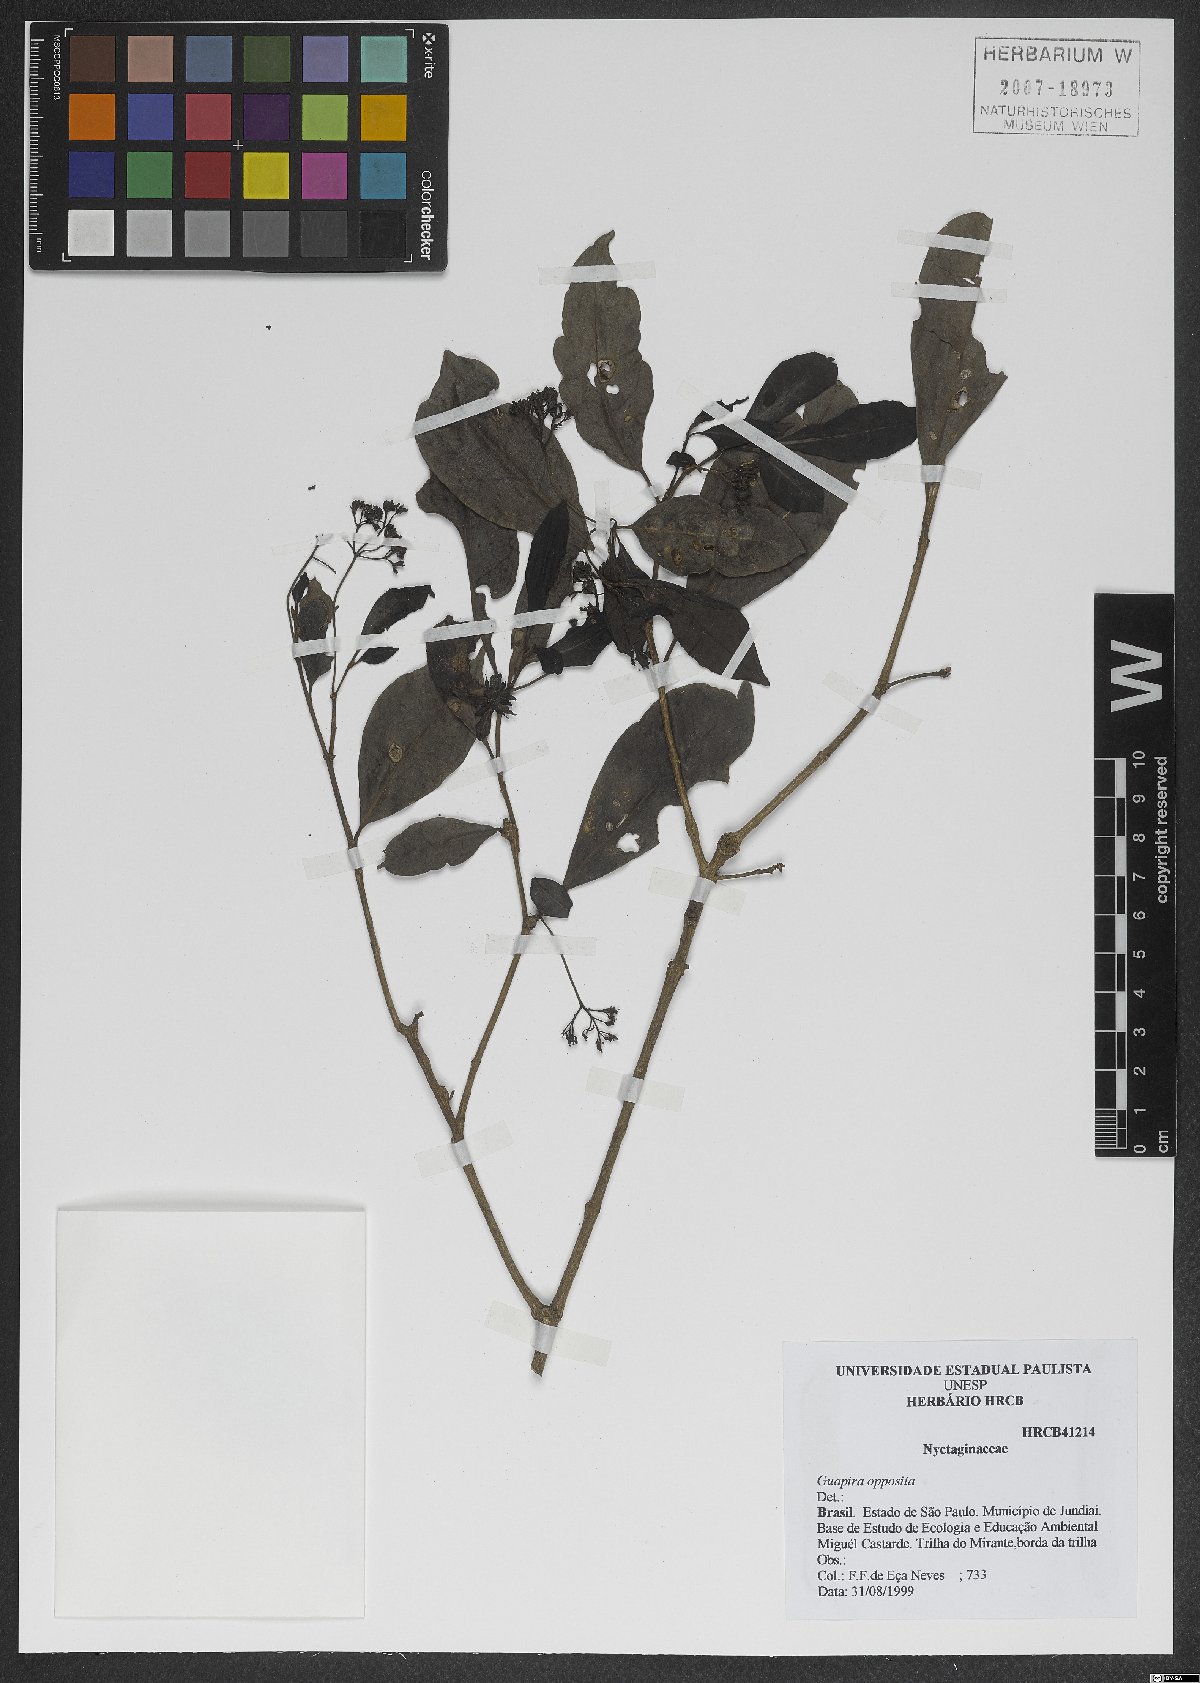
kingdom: Plantae
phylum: Tracheophyta
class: Magnoliopsida
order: Caryophyllales
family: Nyctaginaceae
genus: Guapira
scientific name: Guapira opposita
